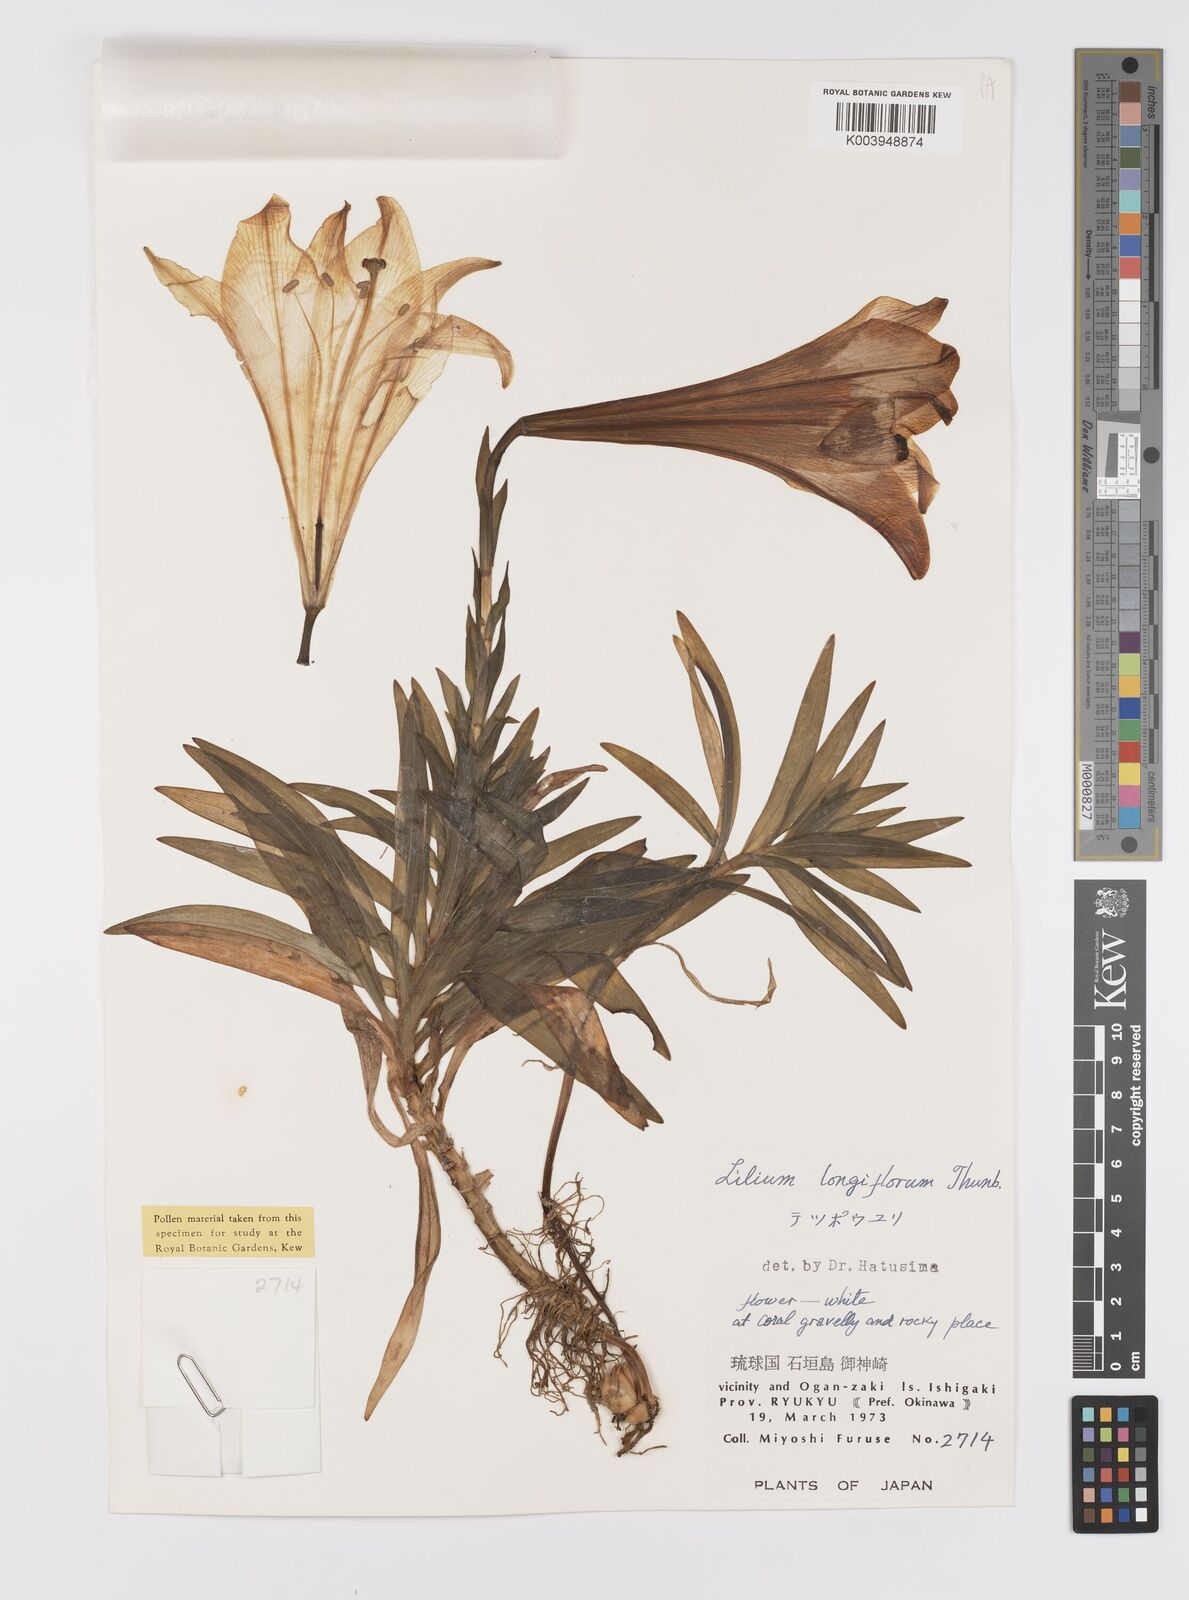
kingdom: Plantae
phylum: Tracheophyta
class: Liliopsida
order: Liliales
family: Liliaceae
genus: Lilium
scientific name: Lilium longiflorum
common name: Easter lily
